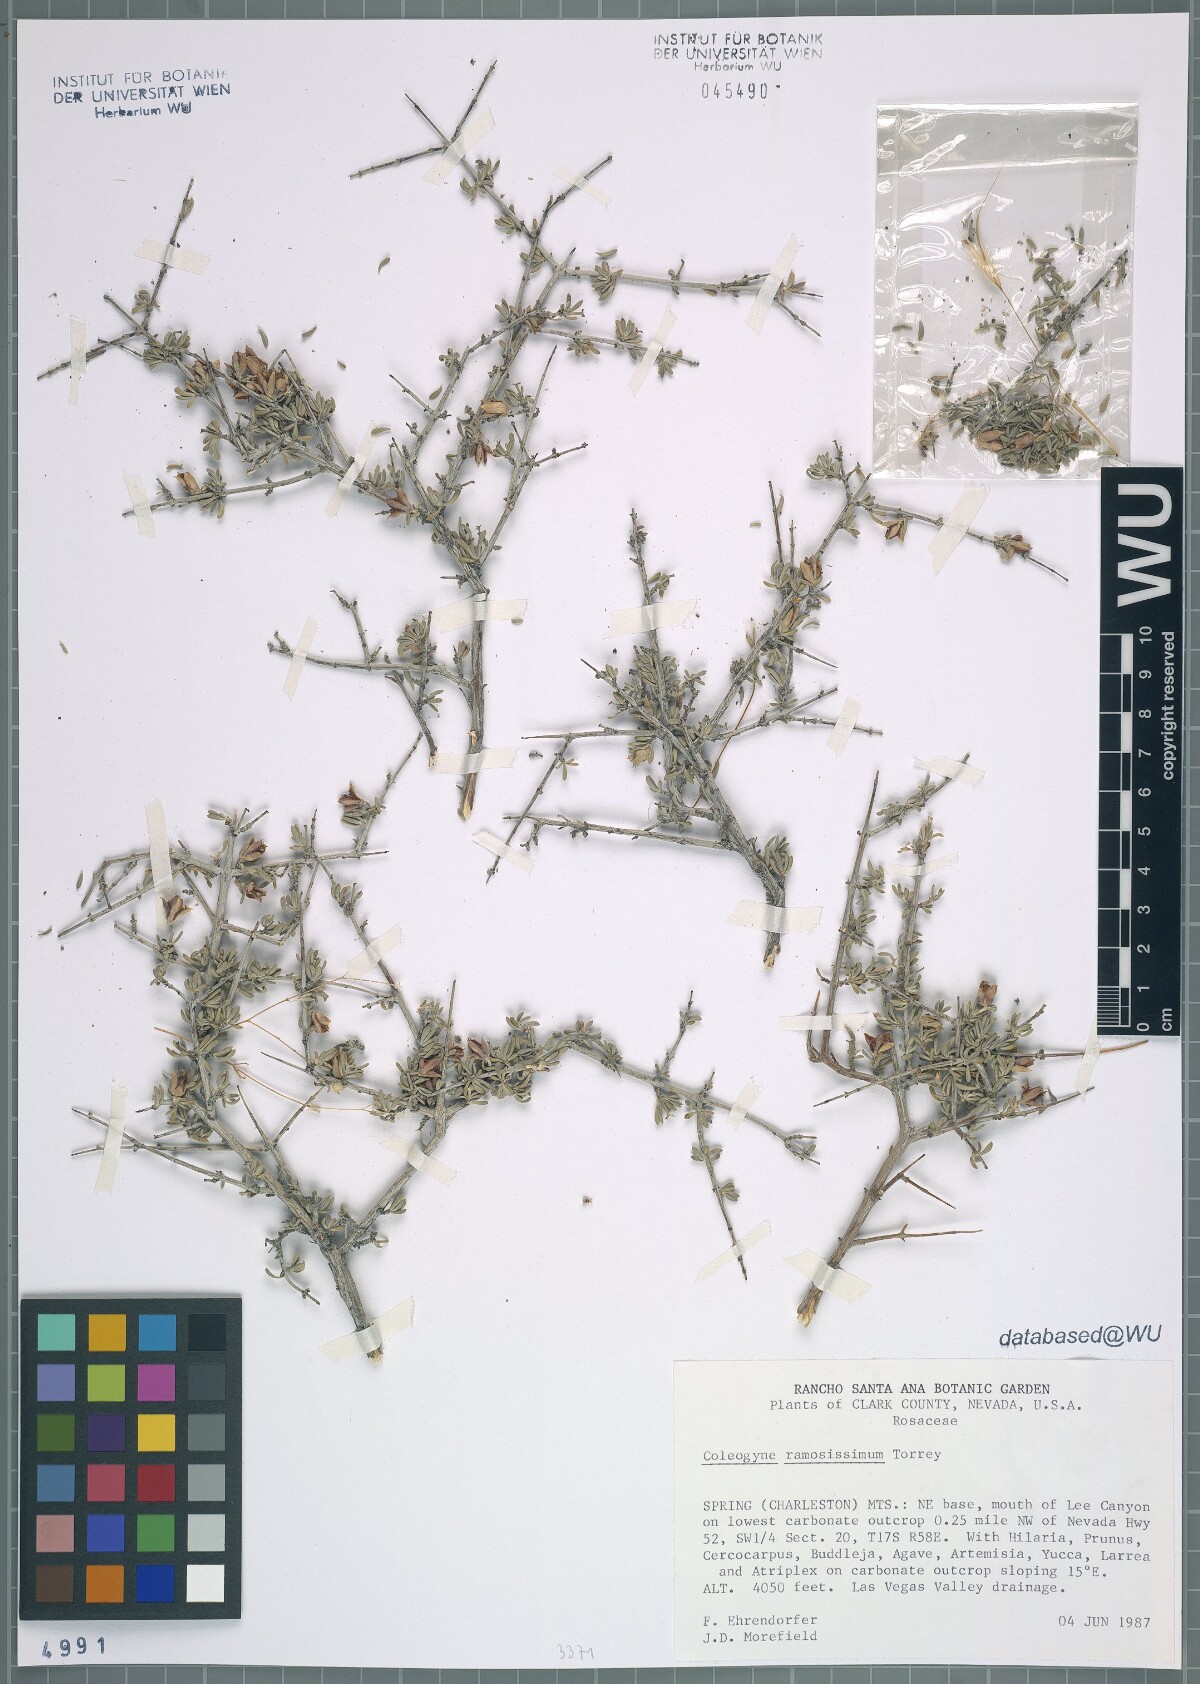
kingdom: Plantae
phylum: Tracheophyta
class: Magnoliopsida
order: Rosales
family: Rosaceae
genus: Coleogyne
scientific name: Coleogyne ramosissima
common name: Blackbrush
